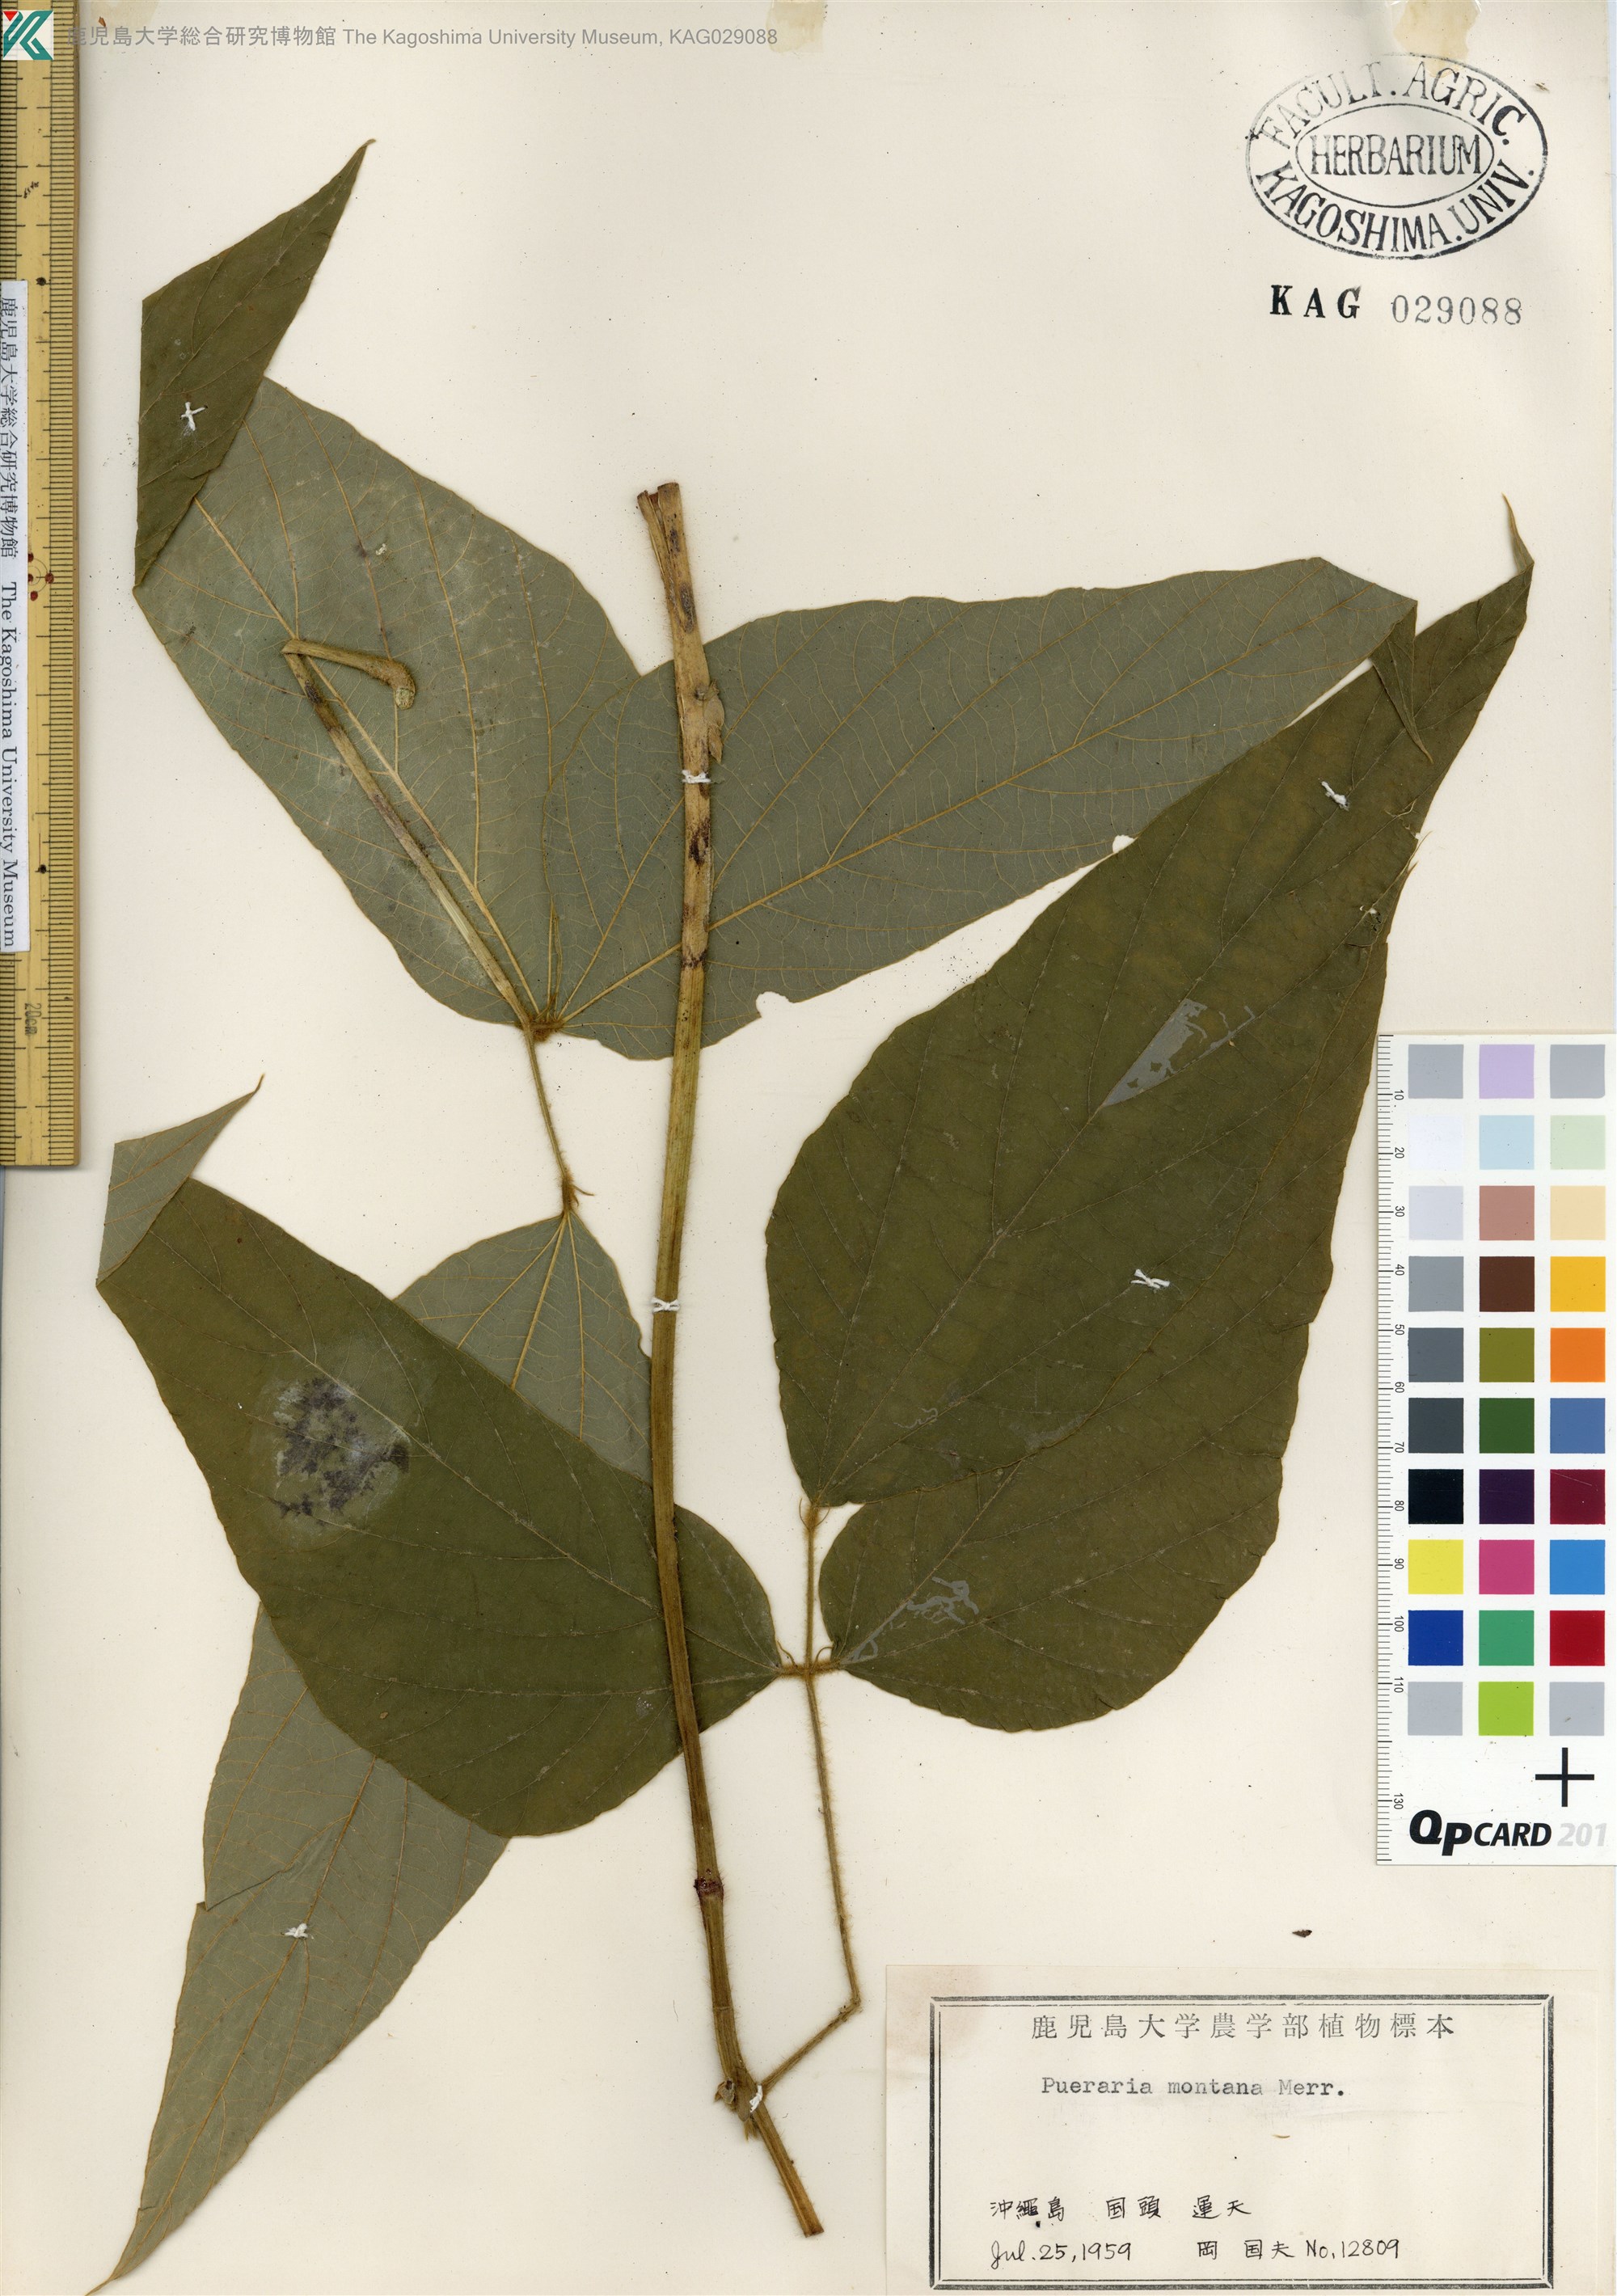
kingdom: Plantae
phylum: Tracheophyta
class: Magnoliopsida
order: Fabales
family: Fabaceae
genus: Pueraria
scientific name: Pueraria montana
